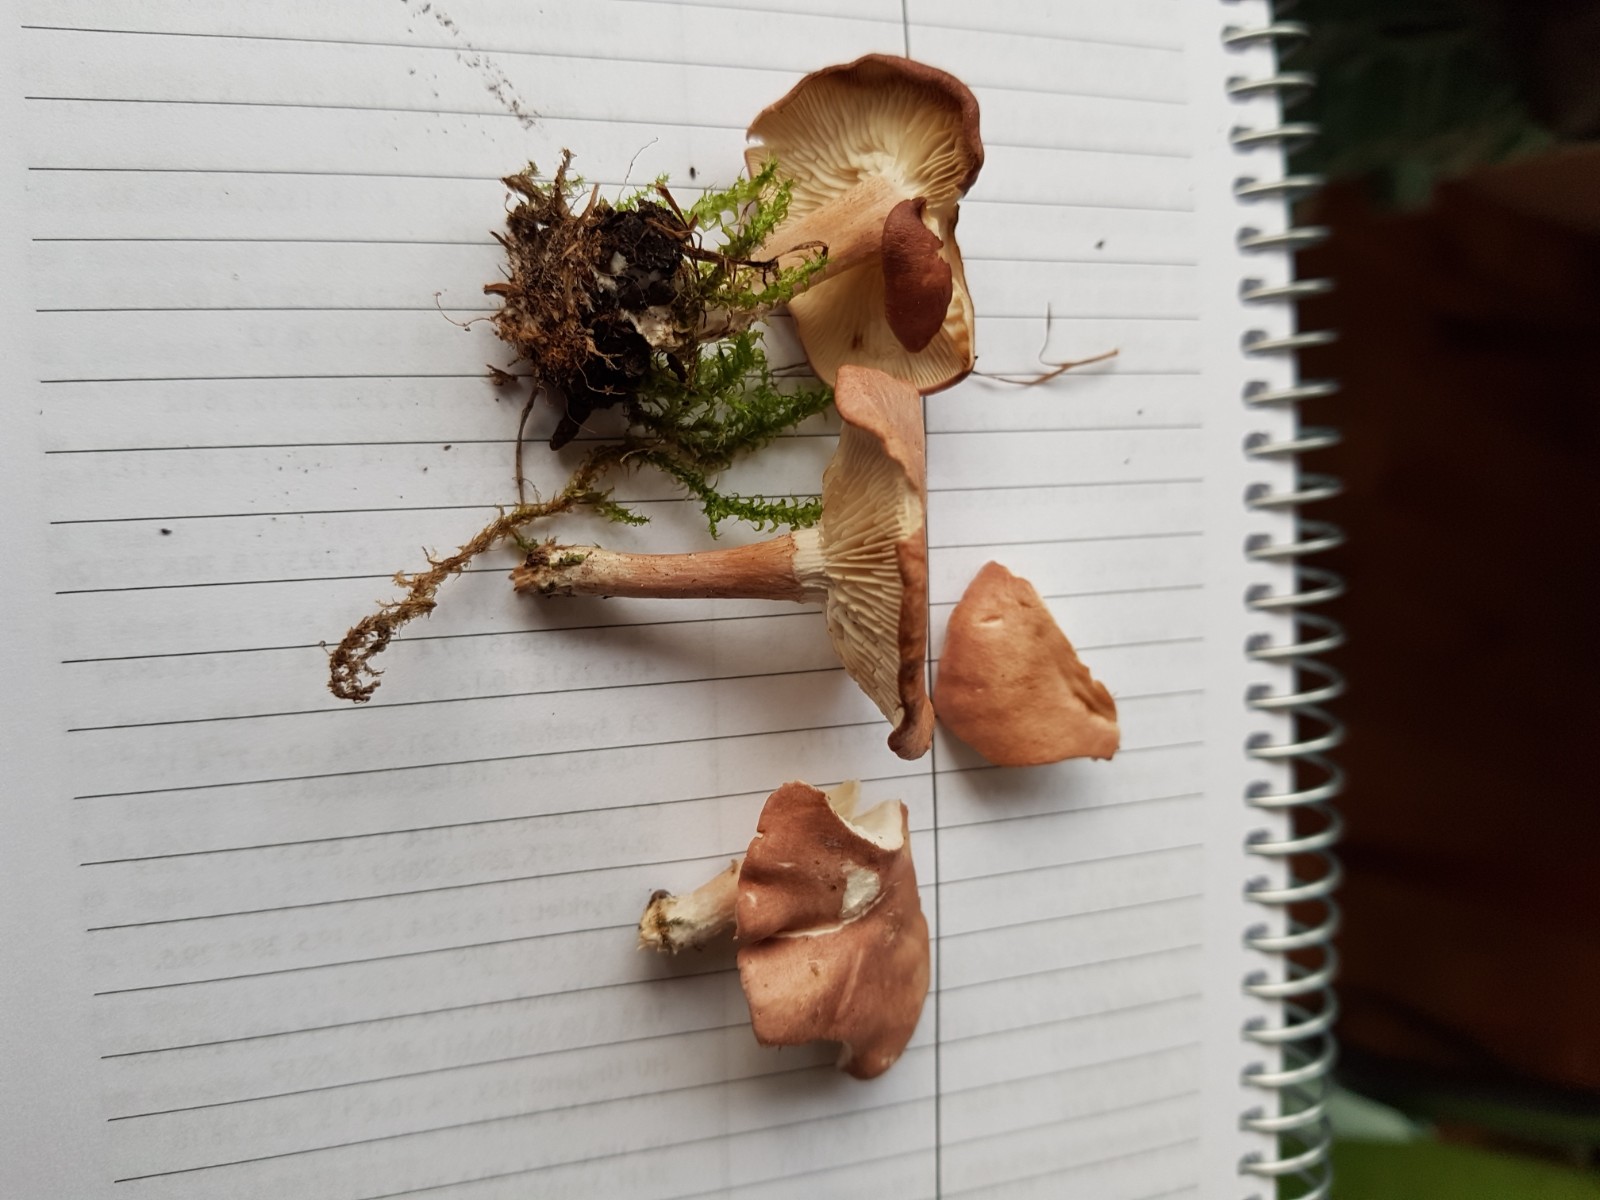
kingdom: Fungi
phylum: Basidiomycota
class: Agaricomycetes
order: Agaricales
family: Lyophyllaceae
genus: Calocybe
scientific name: Calocybe carnea
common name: rosa fagerhat
